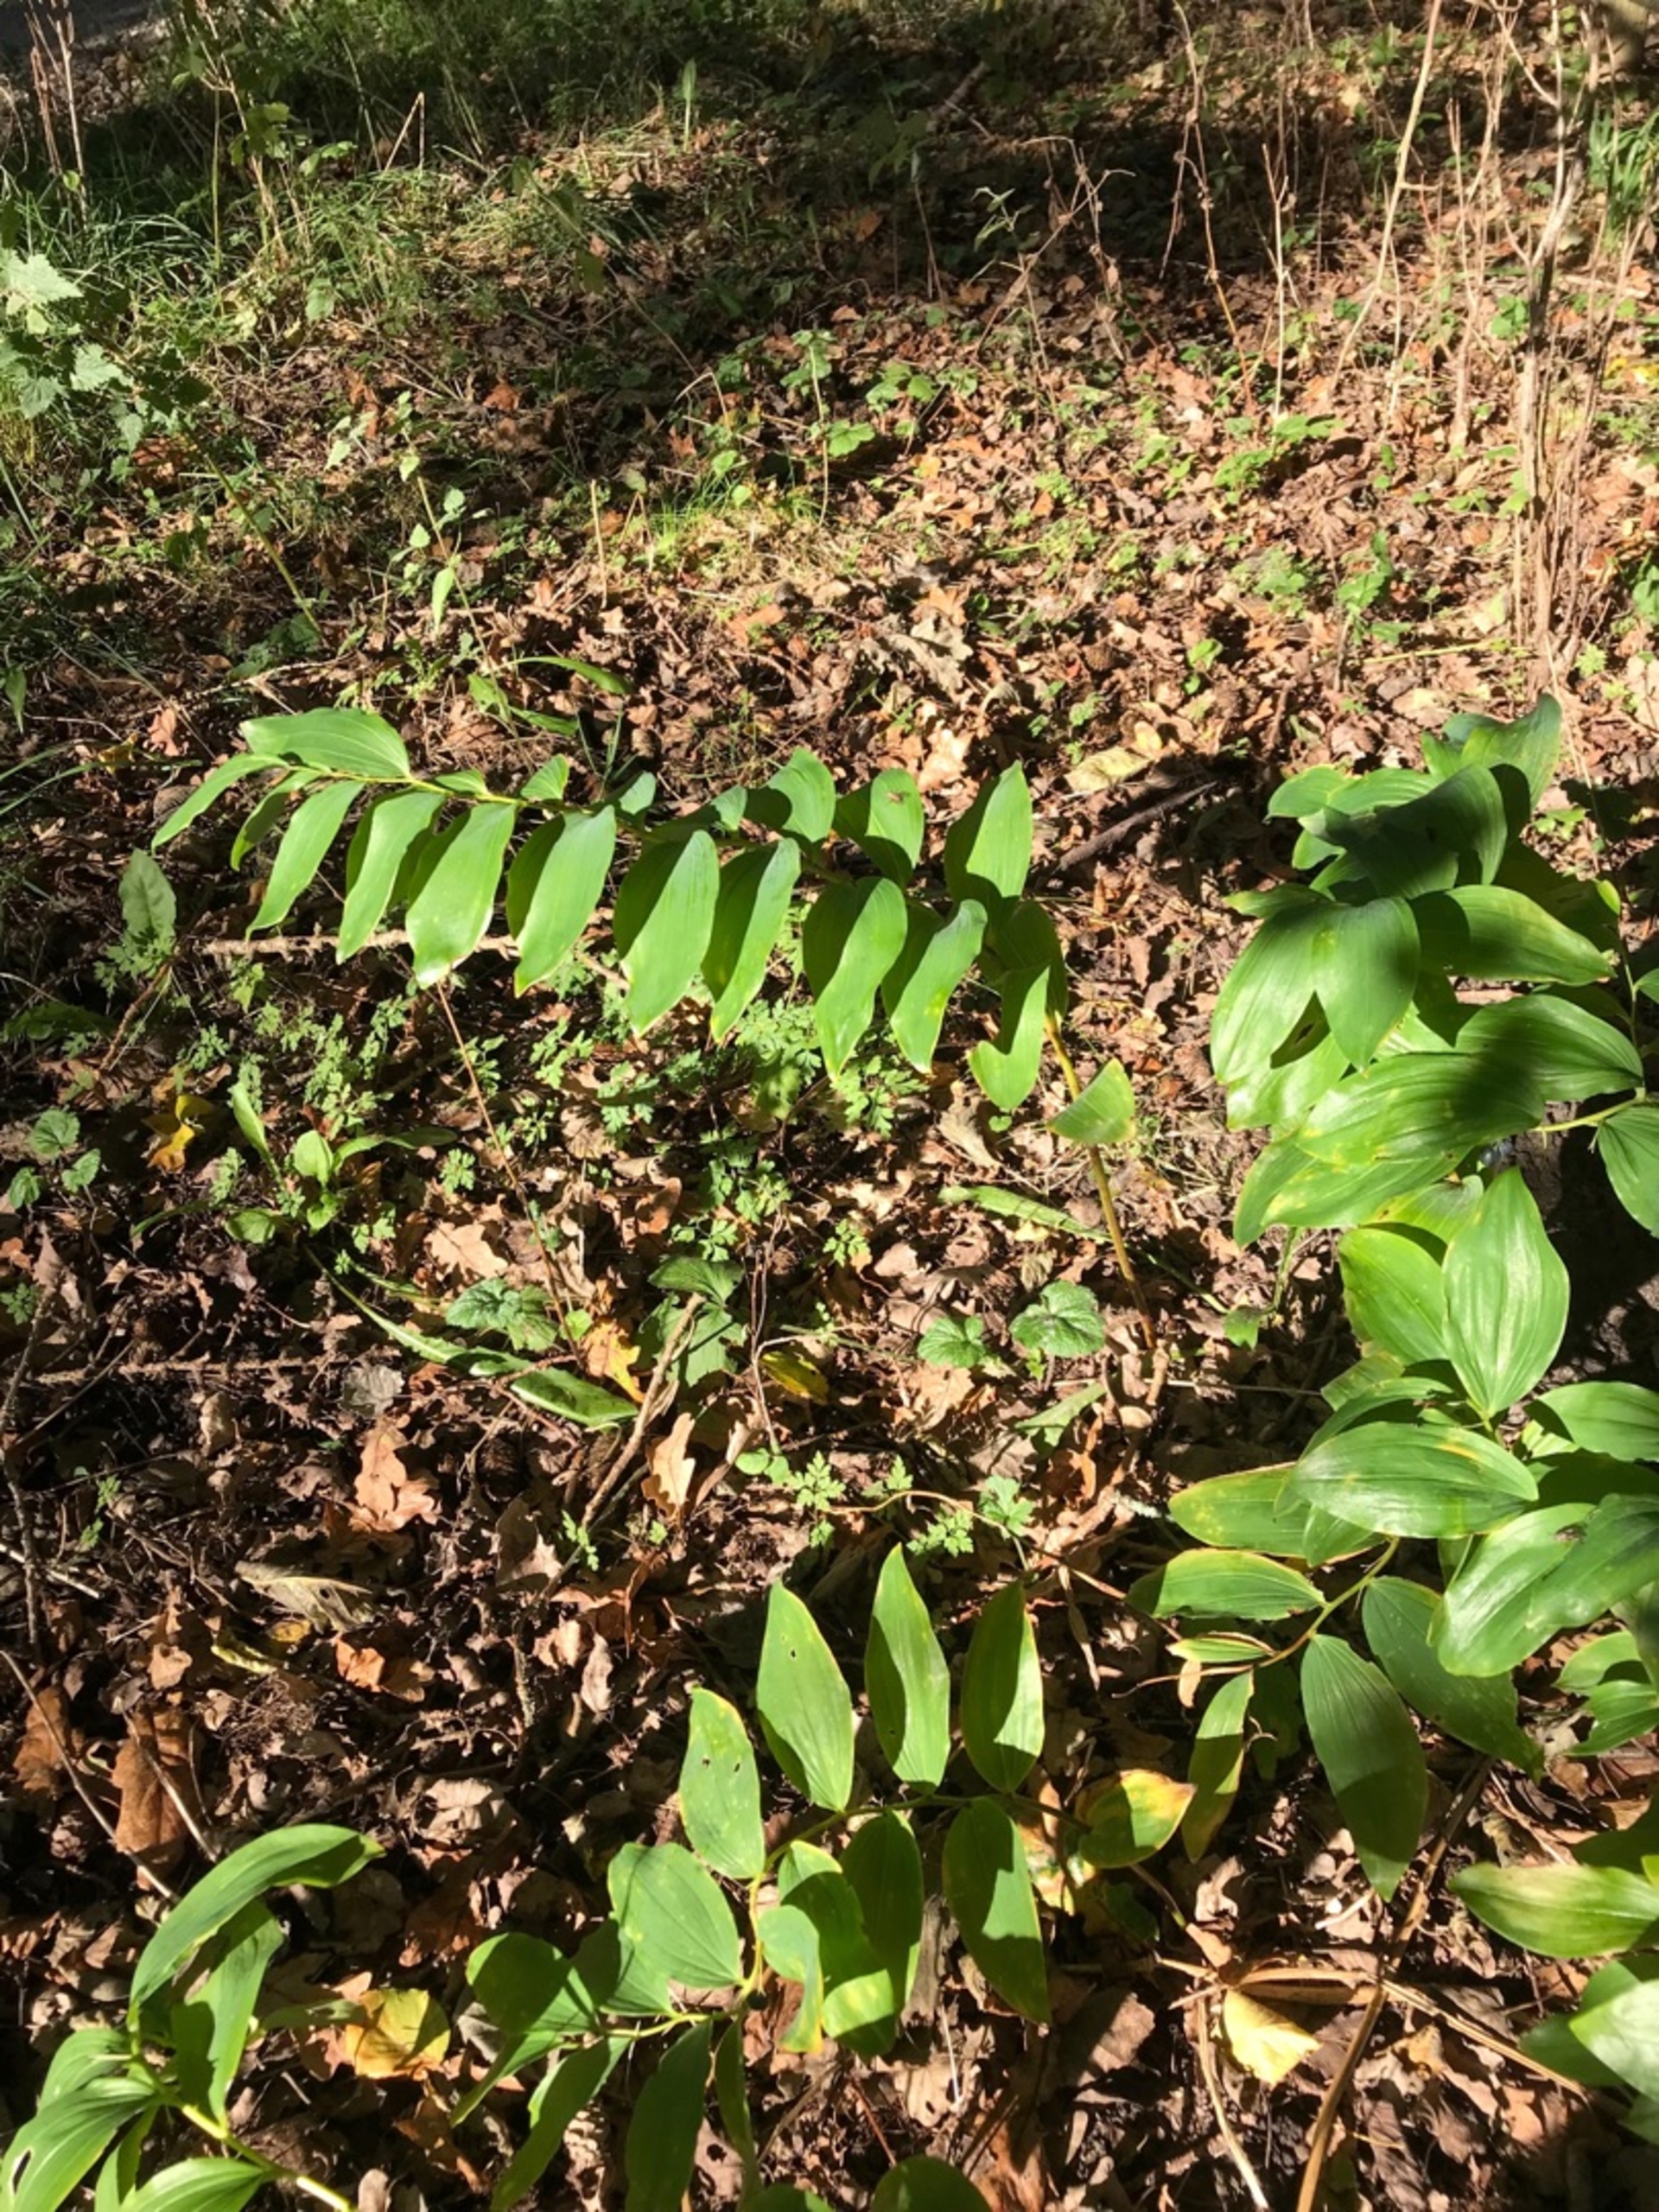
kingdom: Plantae
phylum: Tracheophyta
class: Liliopsida
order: Asparagales
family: Asparagaceae
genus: Polygonatum
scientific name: Polygonatum multiflorum
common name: Stor konval
